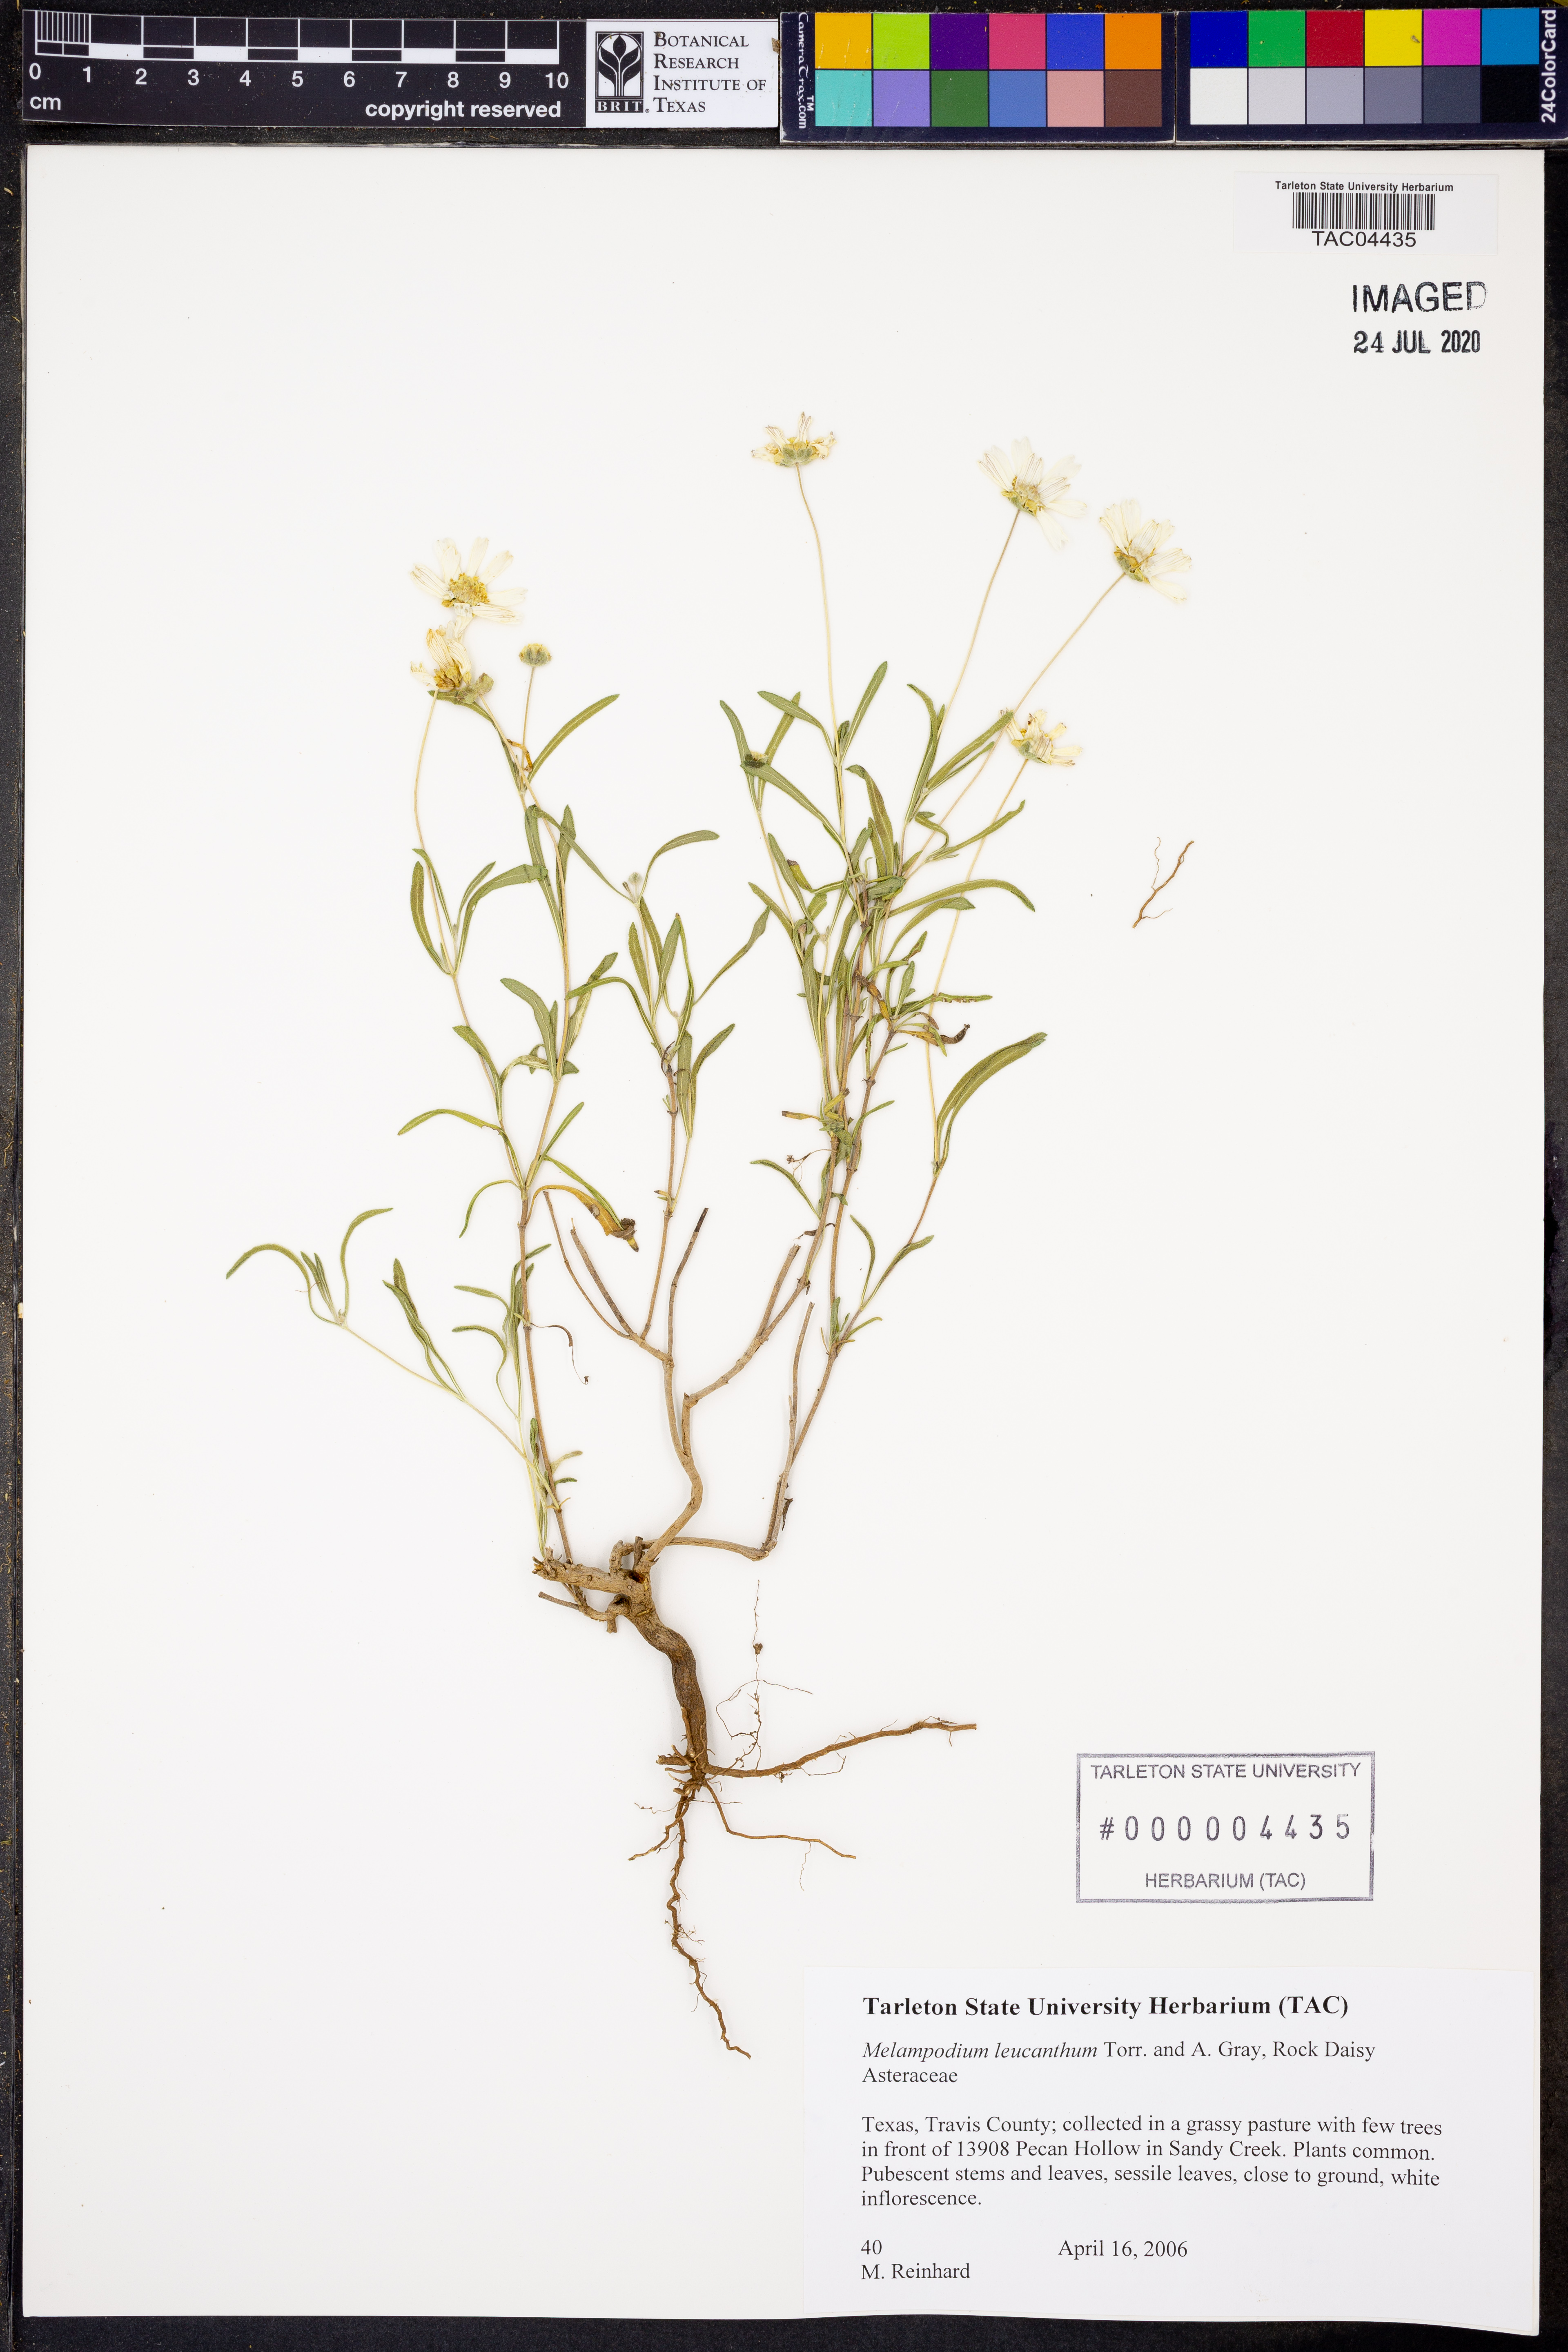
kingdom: Plantae
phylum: Tracheophyta
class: Magnoliopsida
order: Asterales
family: Asteraceae
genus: Melampodium
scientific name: Melampodium leucanthum
